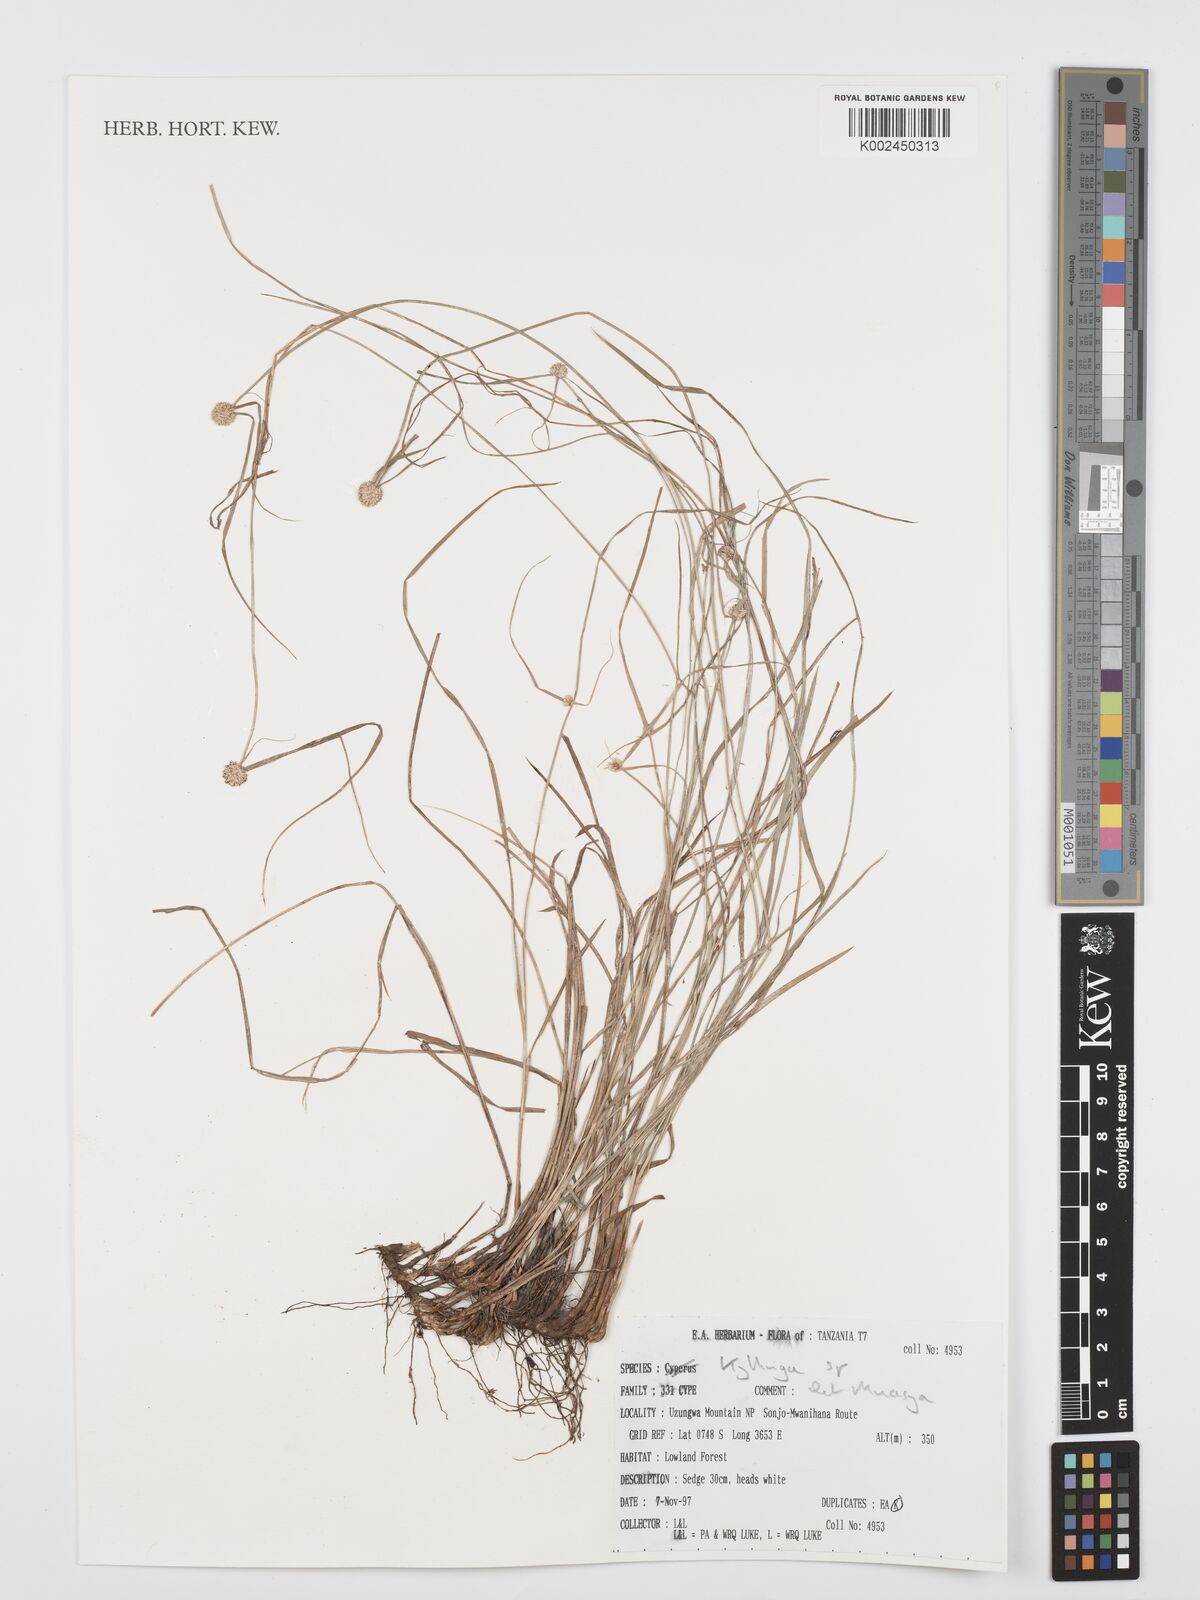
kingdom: Plantae
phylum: Tracheophyta
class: Liliopsida
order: Poales
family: Cyperaceae
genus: Cyperus
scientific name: Cyperus
